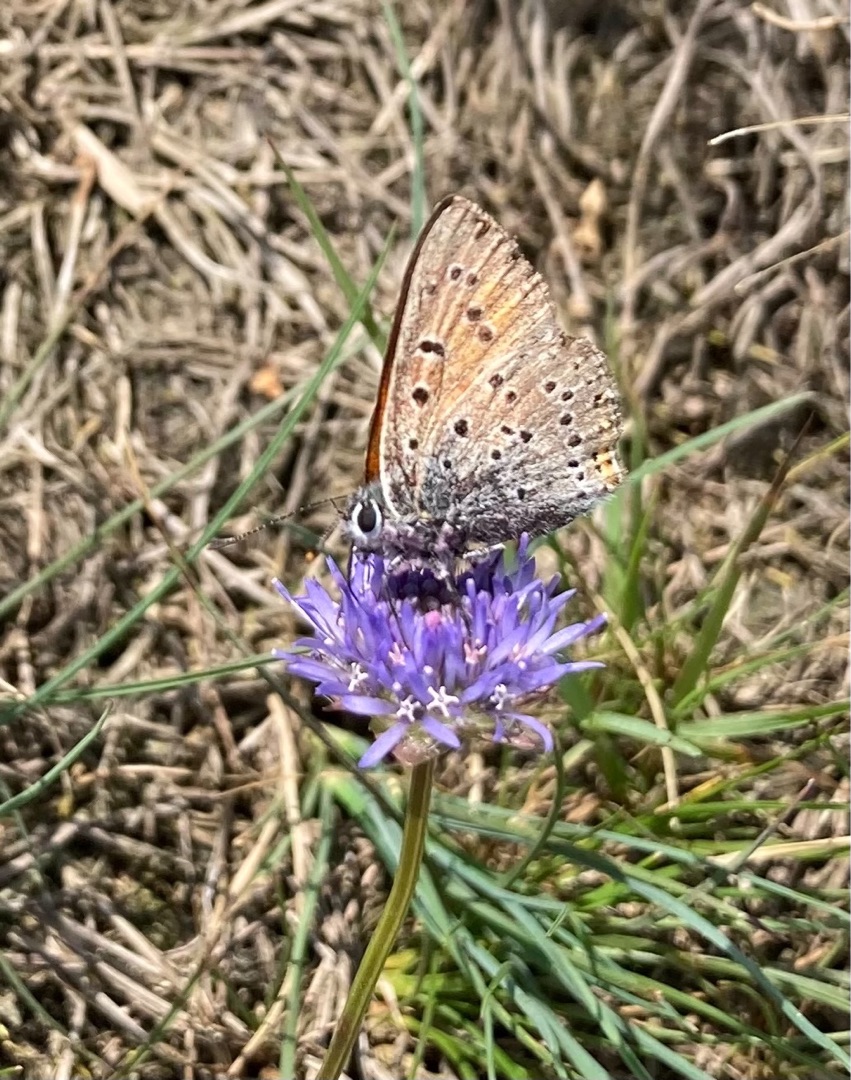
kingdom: Animalia
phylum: Arthropoda
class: Insecta
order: Lepidoptera
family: Lycaenidae
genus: Palaeochrysophanus
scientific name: Palaeochrysophanus hippothoe
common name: Violetrandet ildfugl
